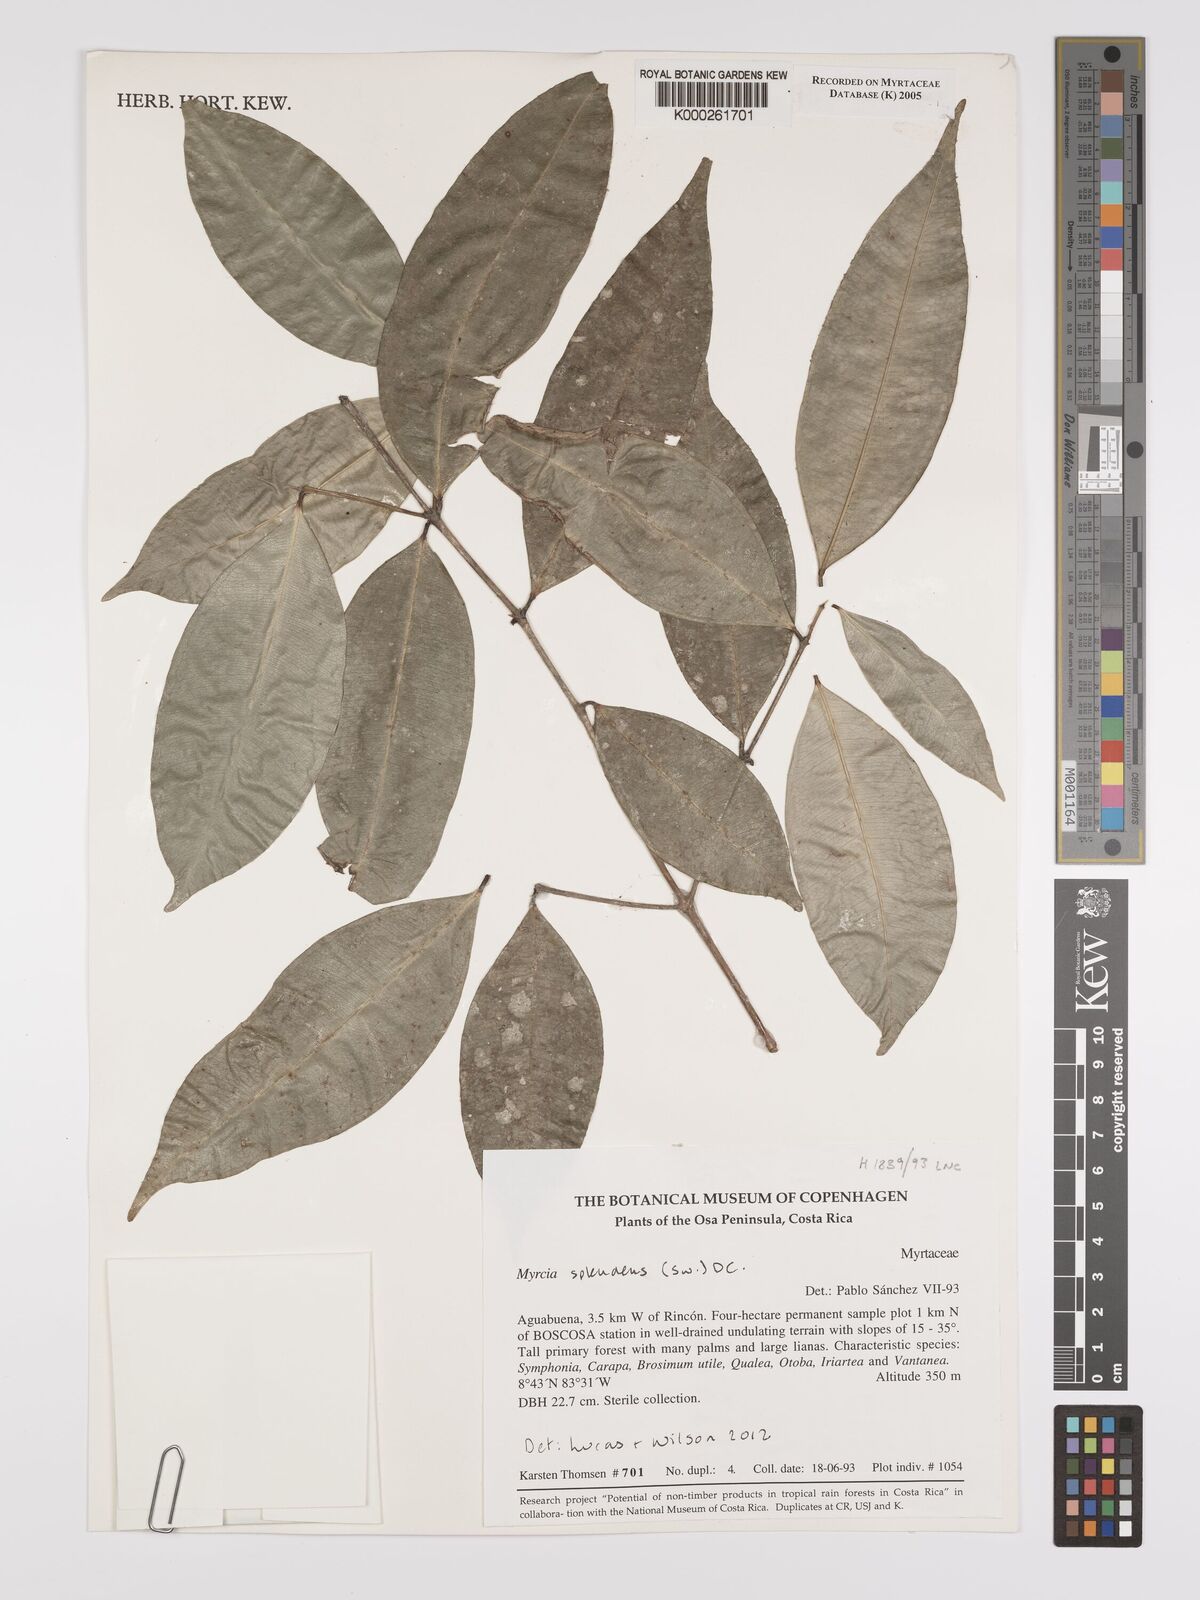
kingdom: Plantae
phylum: Tracheophyta
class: Magnoliopsida
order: Myrtales
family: Myrtaceae
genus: Myrcia
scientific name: Myrcia
